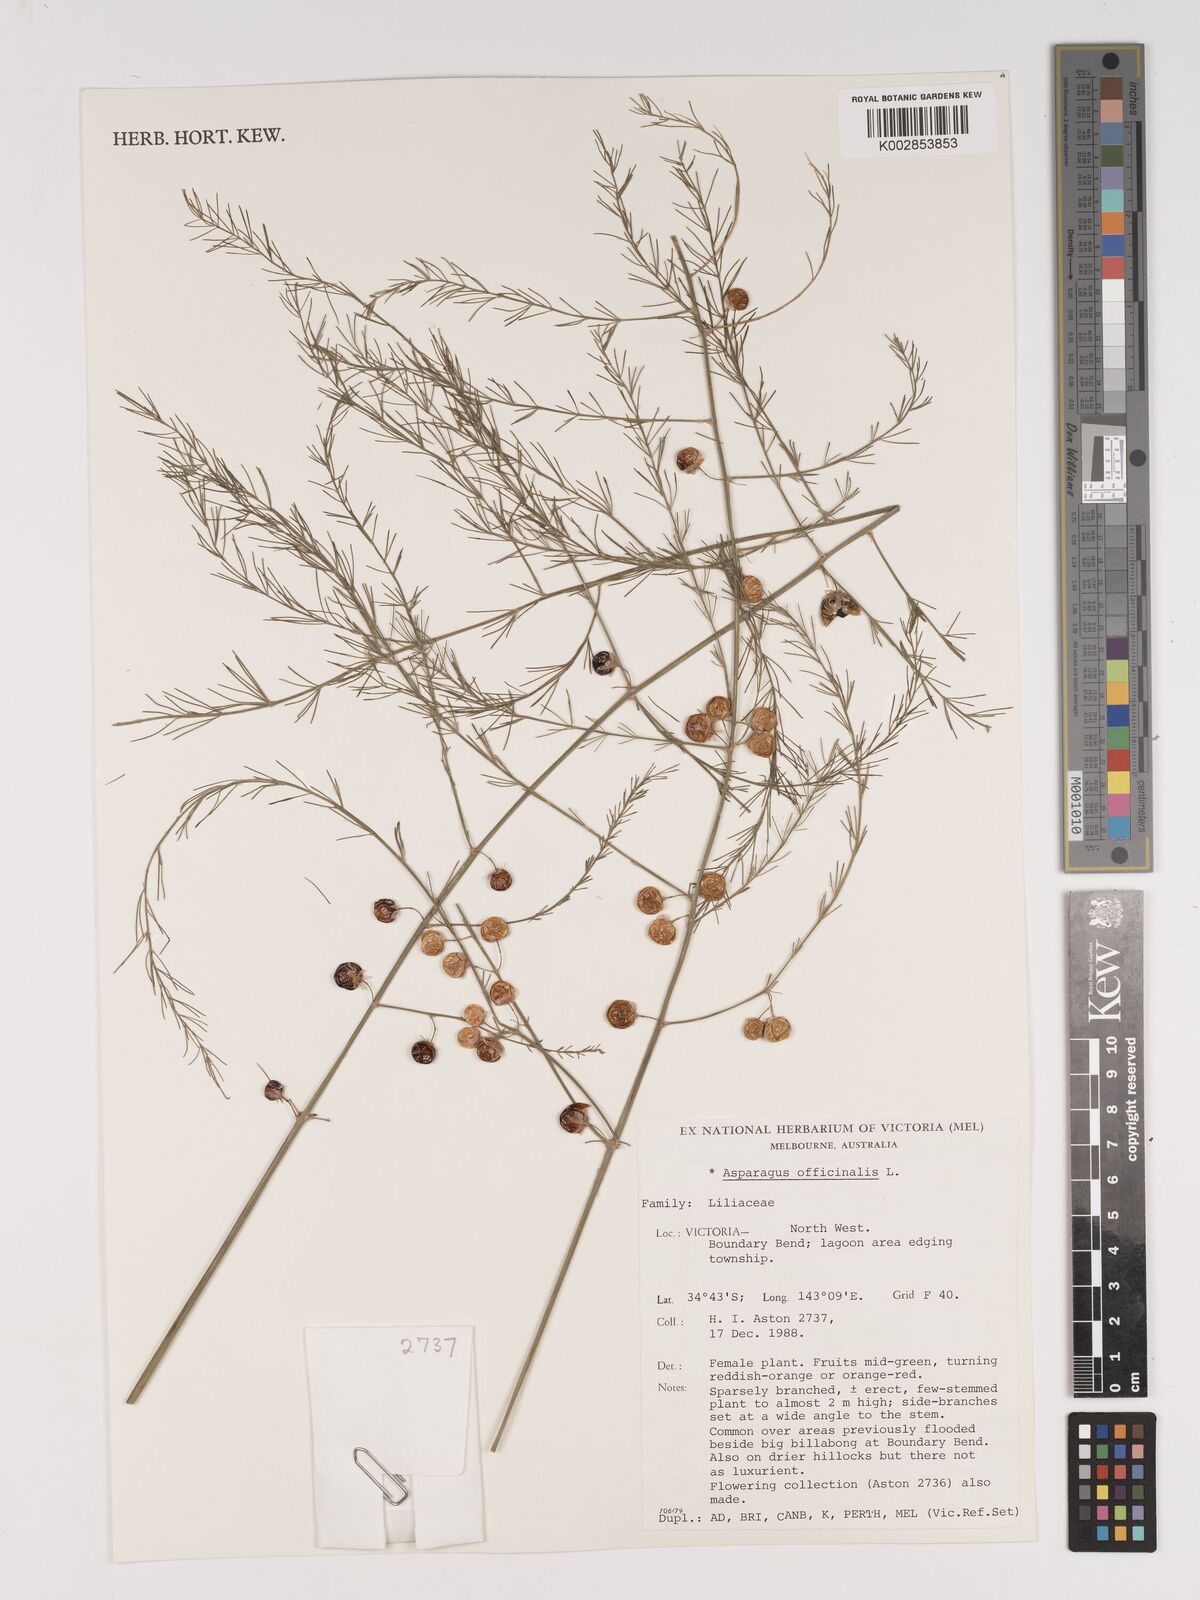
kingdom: Plantae
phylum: Tracheophyta
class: Liliopsida
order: Asparagales
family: Asparagaceae
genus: Asparagus
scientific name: Asparagus officinalis
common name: Garden asparagus
